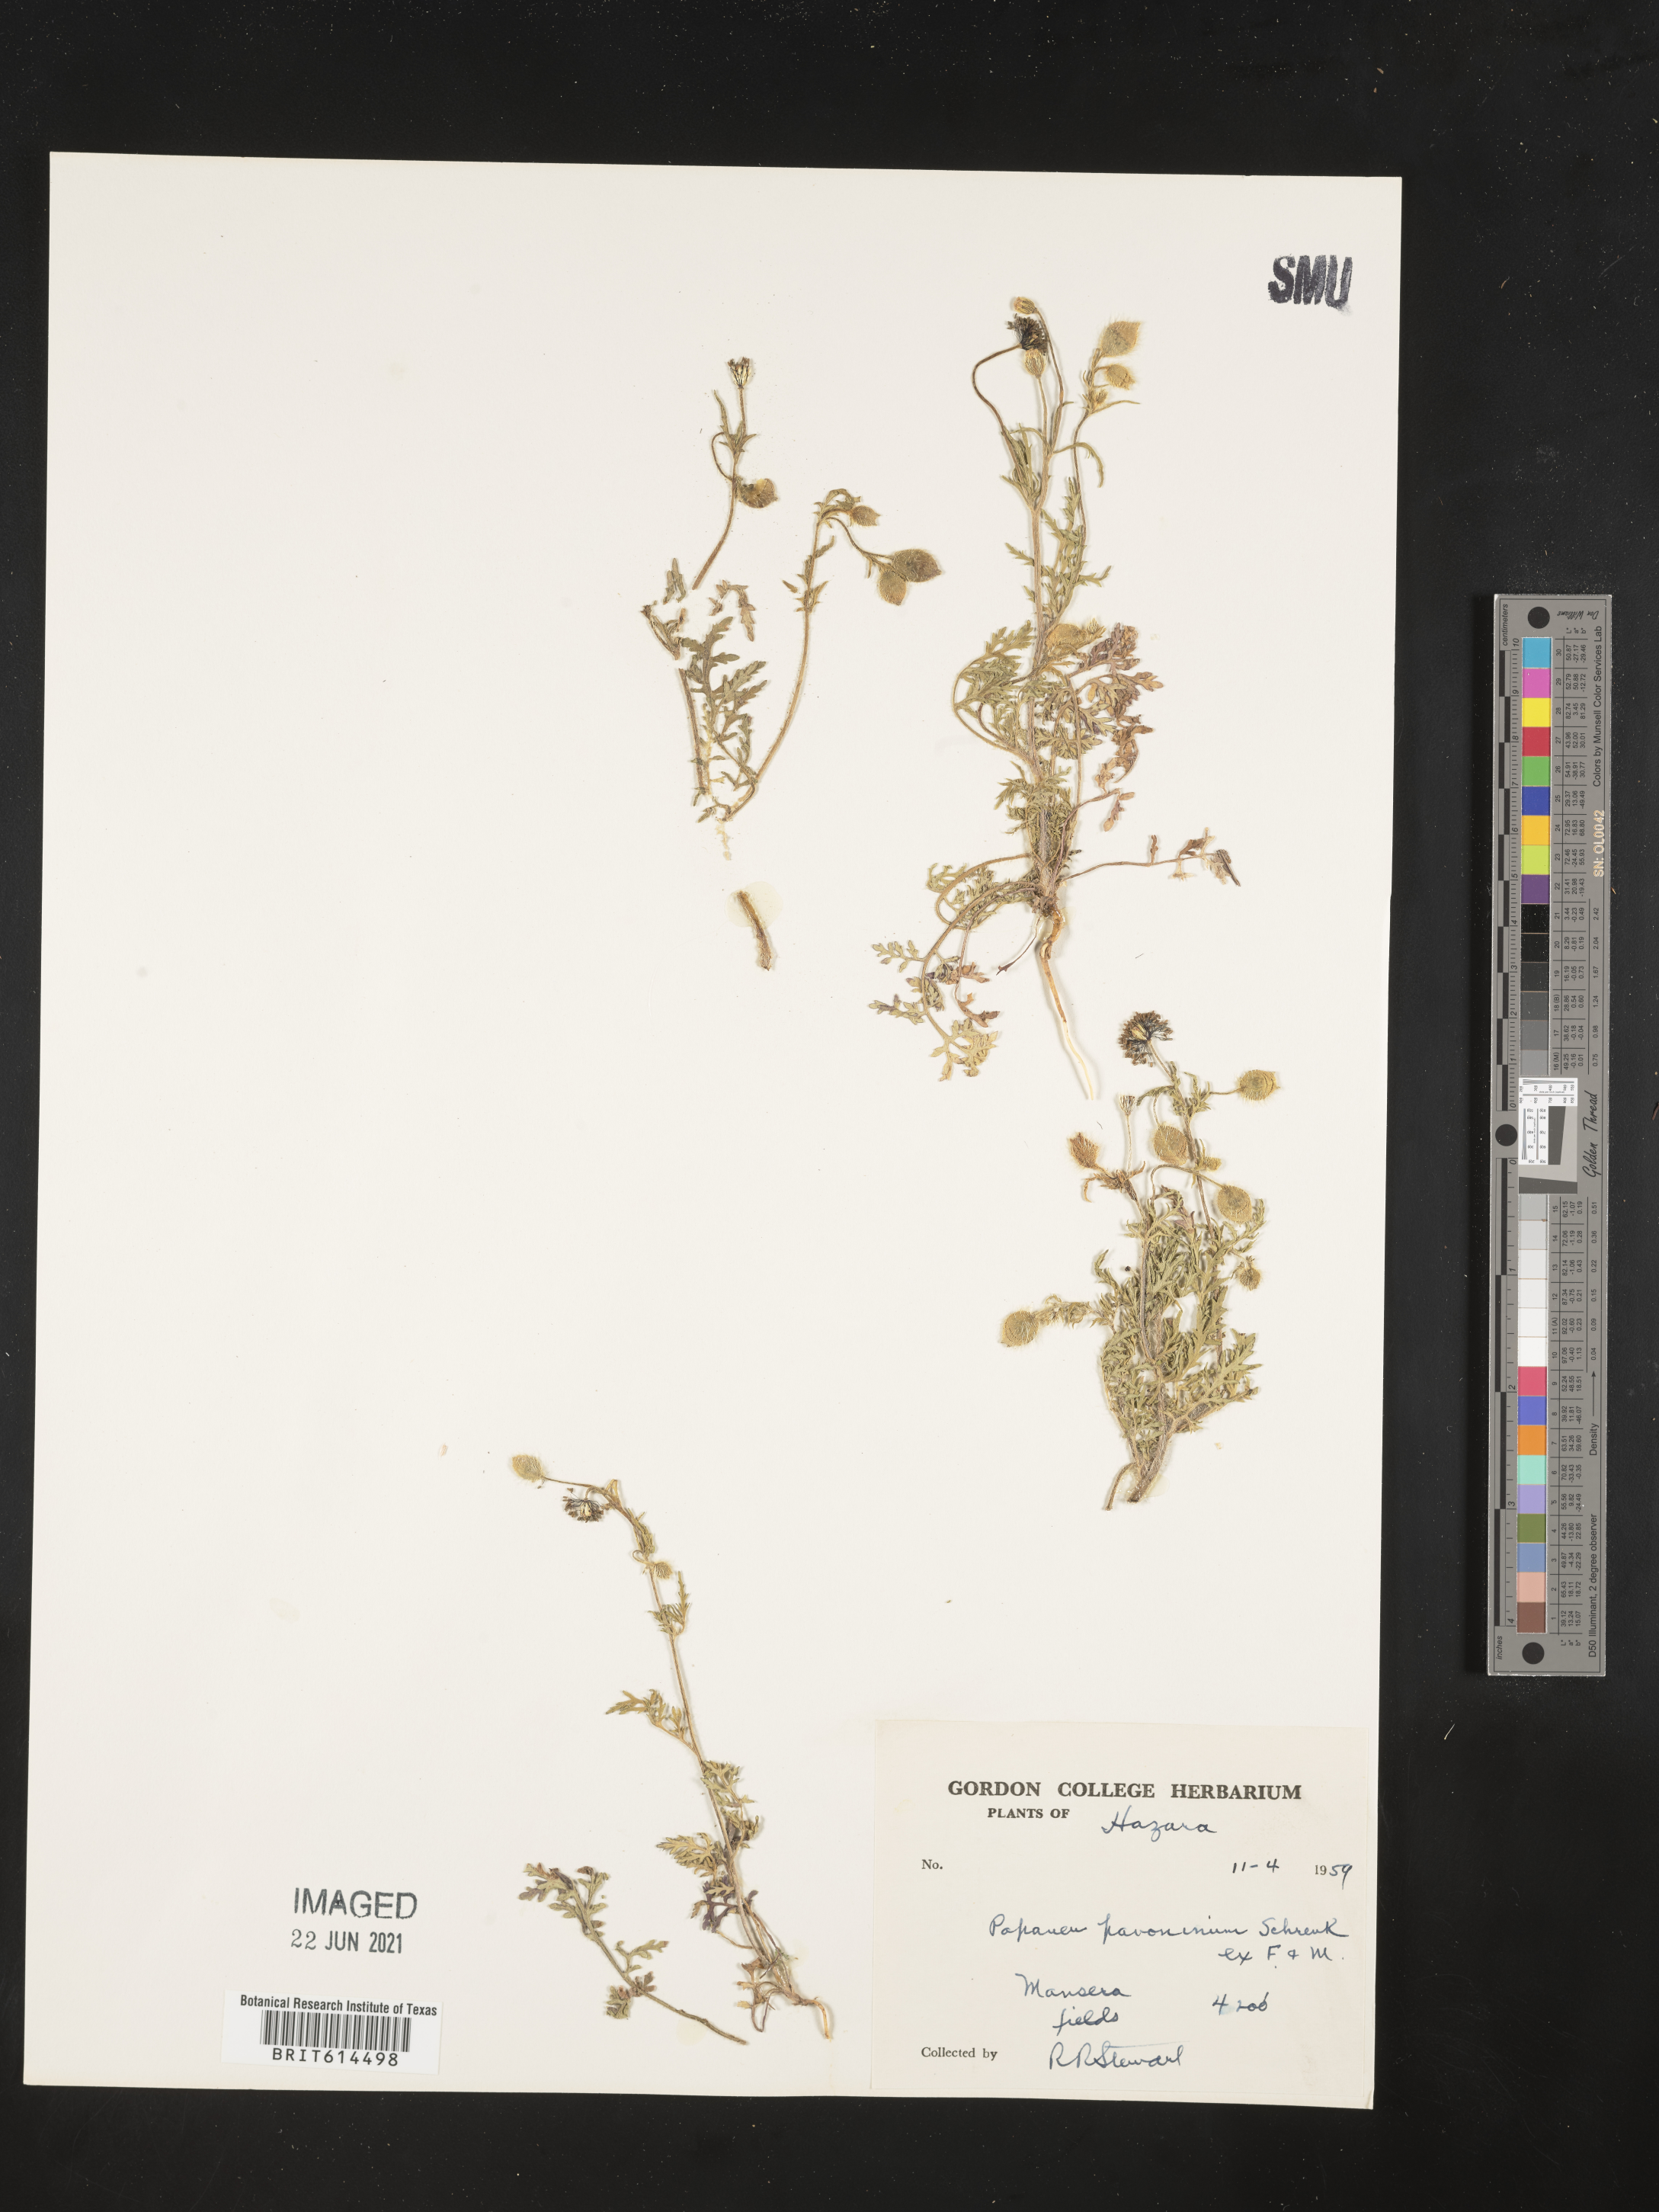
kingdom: Plantae
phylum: Tracheophyta
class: Magnoliopsida
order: Ranunculales
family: Papaveraceae
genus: Roemeria
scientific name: Roemeria pavonina
